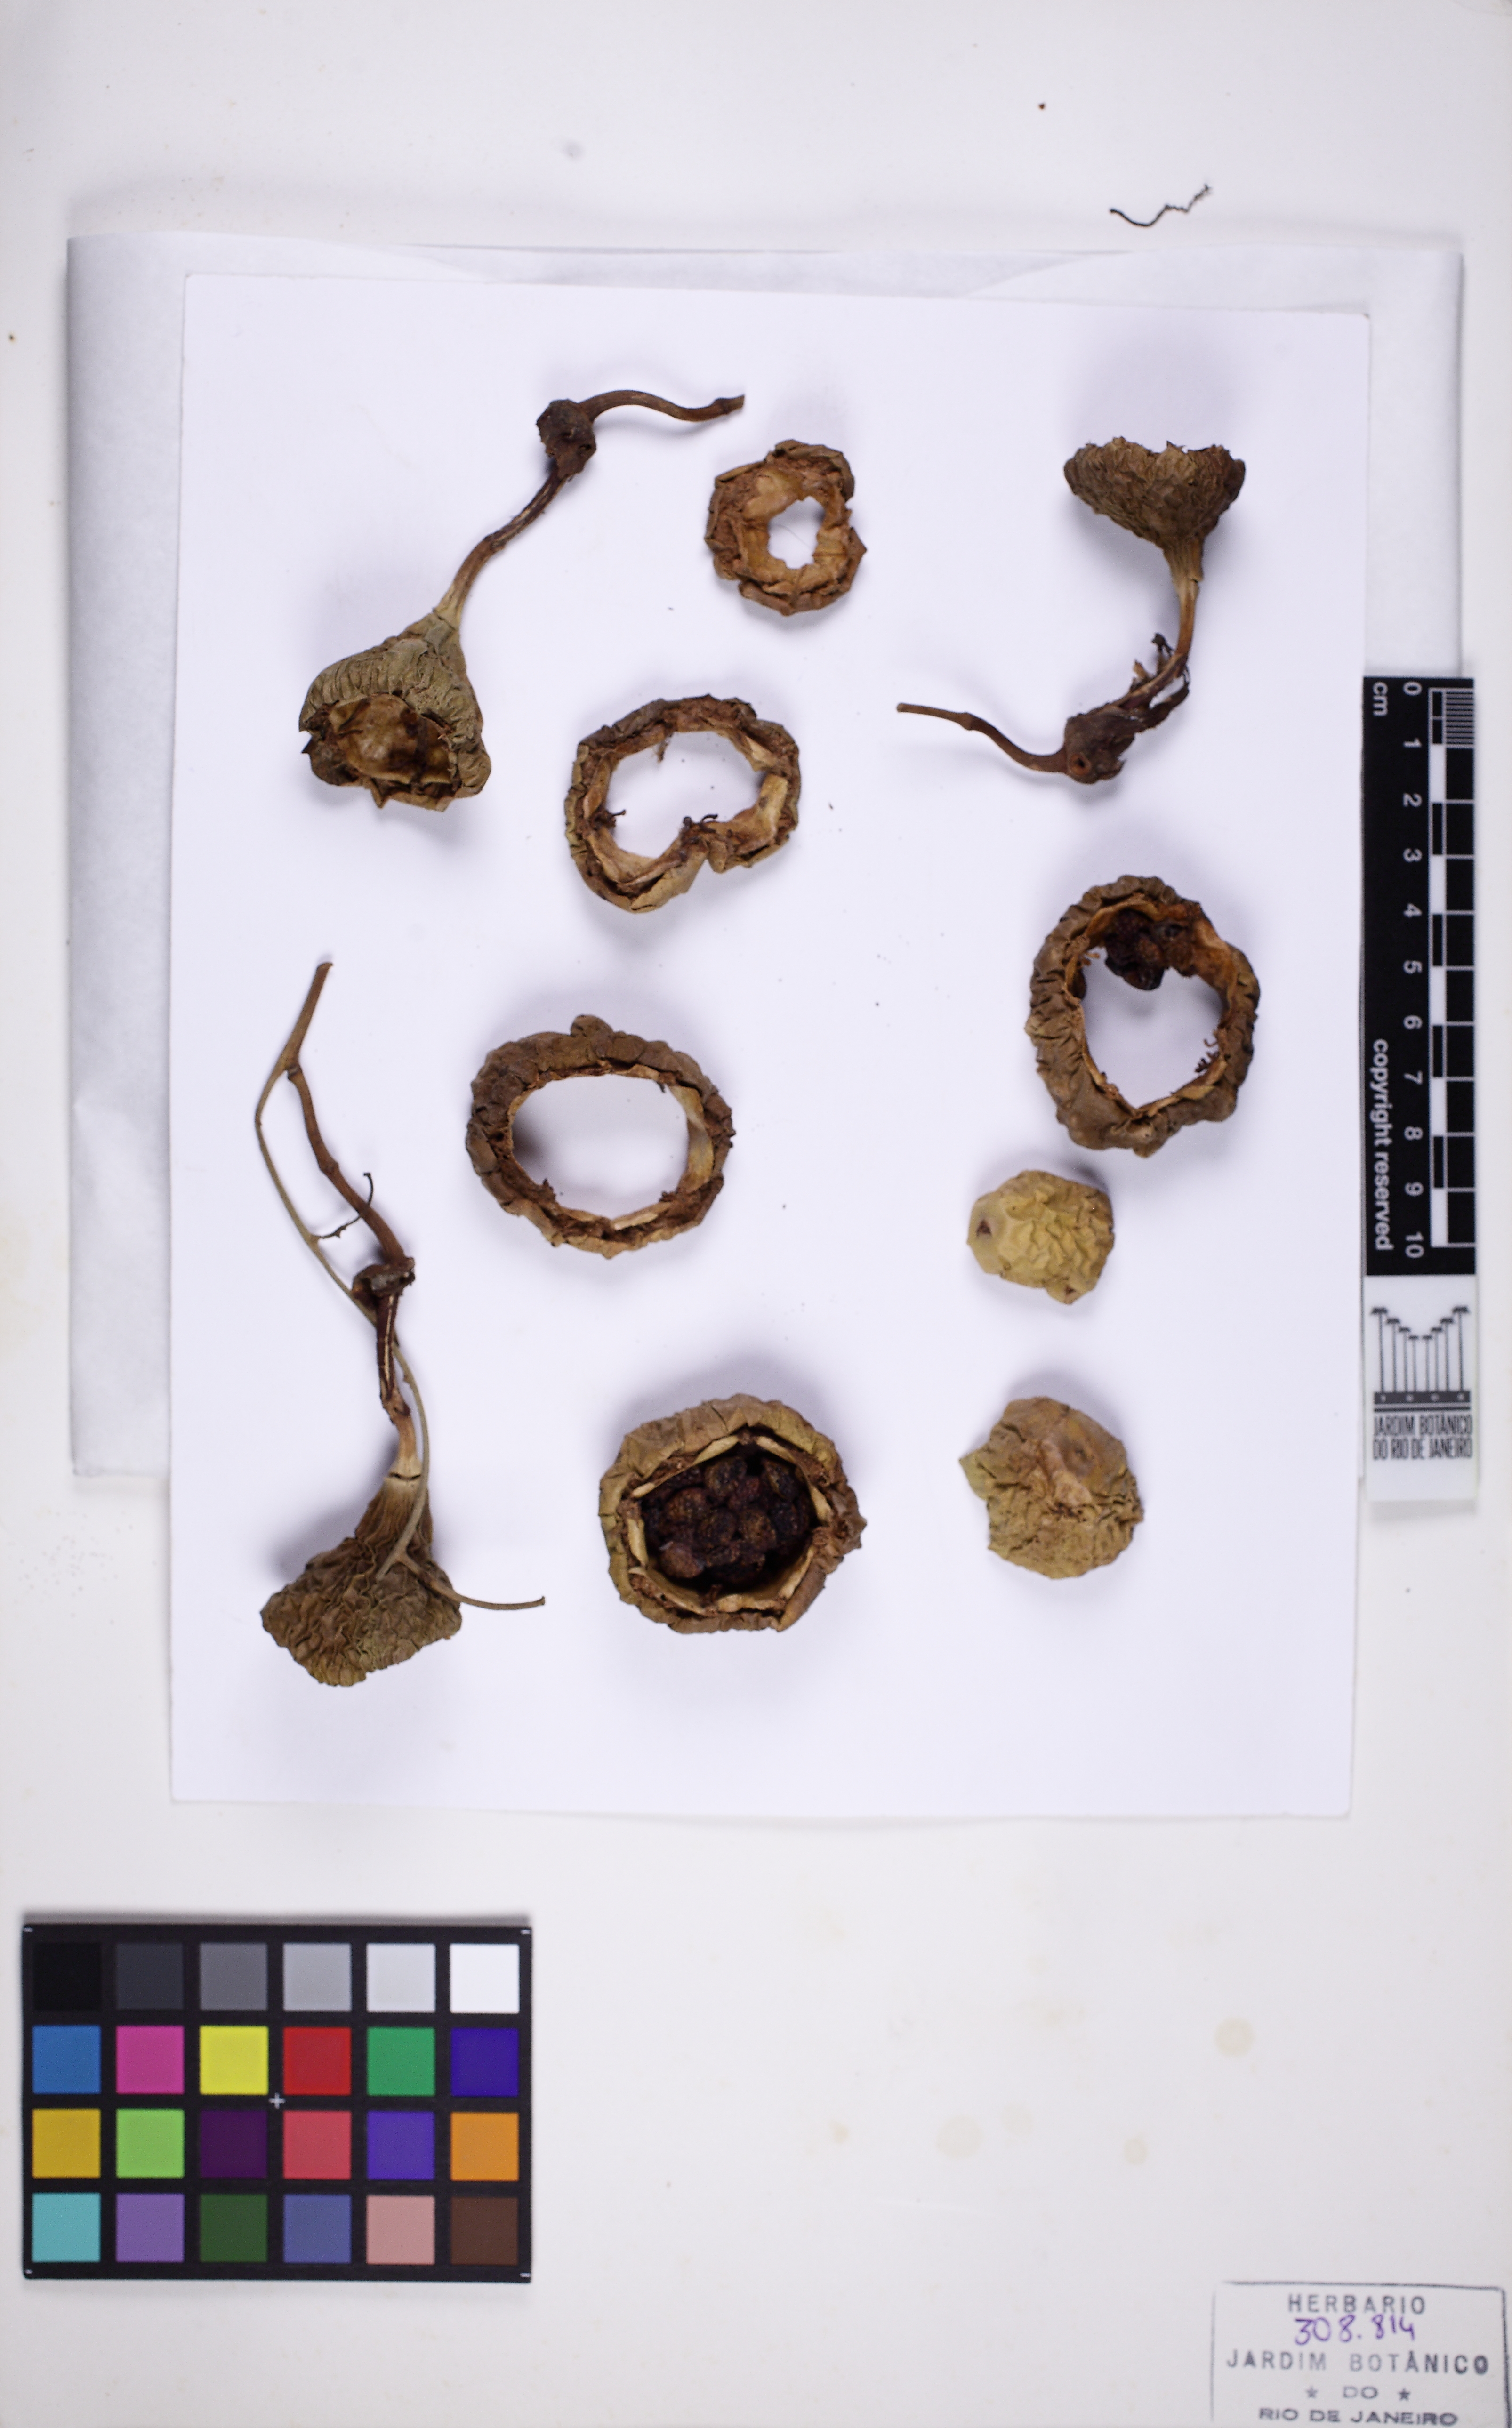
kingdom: Plantae
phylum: Tracheophyta
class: Magnoliopsida
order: Malpighiales
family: Passifloraceae
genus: Passiflora
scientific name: Passiflora ovalis
